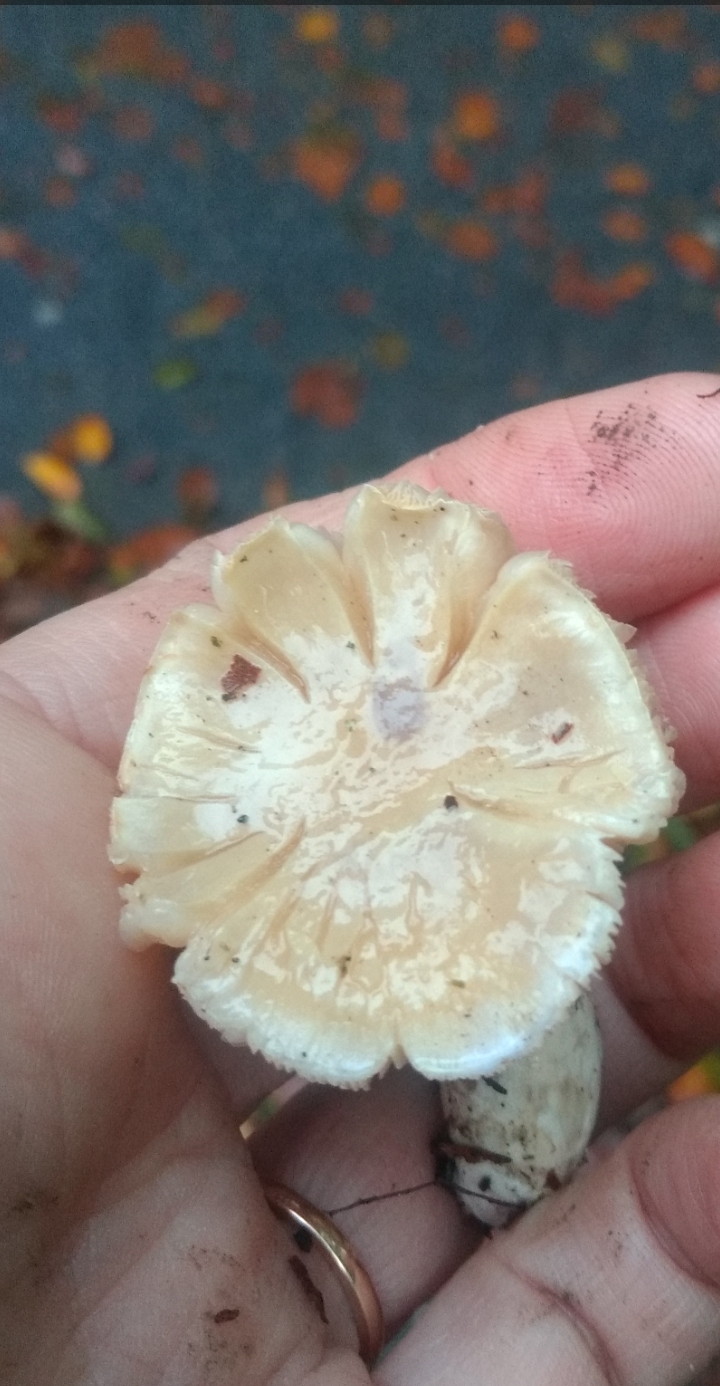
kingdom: Fungi
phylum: Basidiomycota
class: Agaricomycetes
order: Agaricales
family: Cortinariaceae
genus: Thaxterogaster
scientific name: Thaxterogaster
